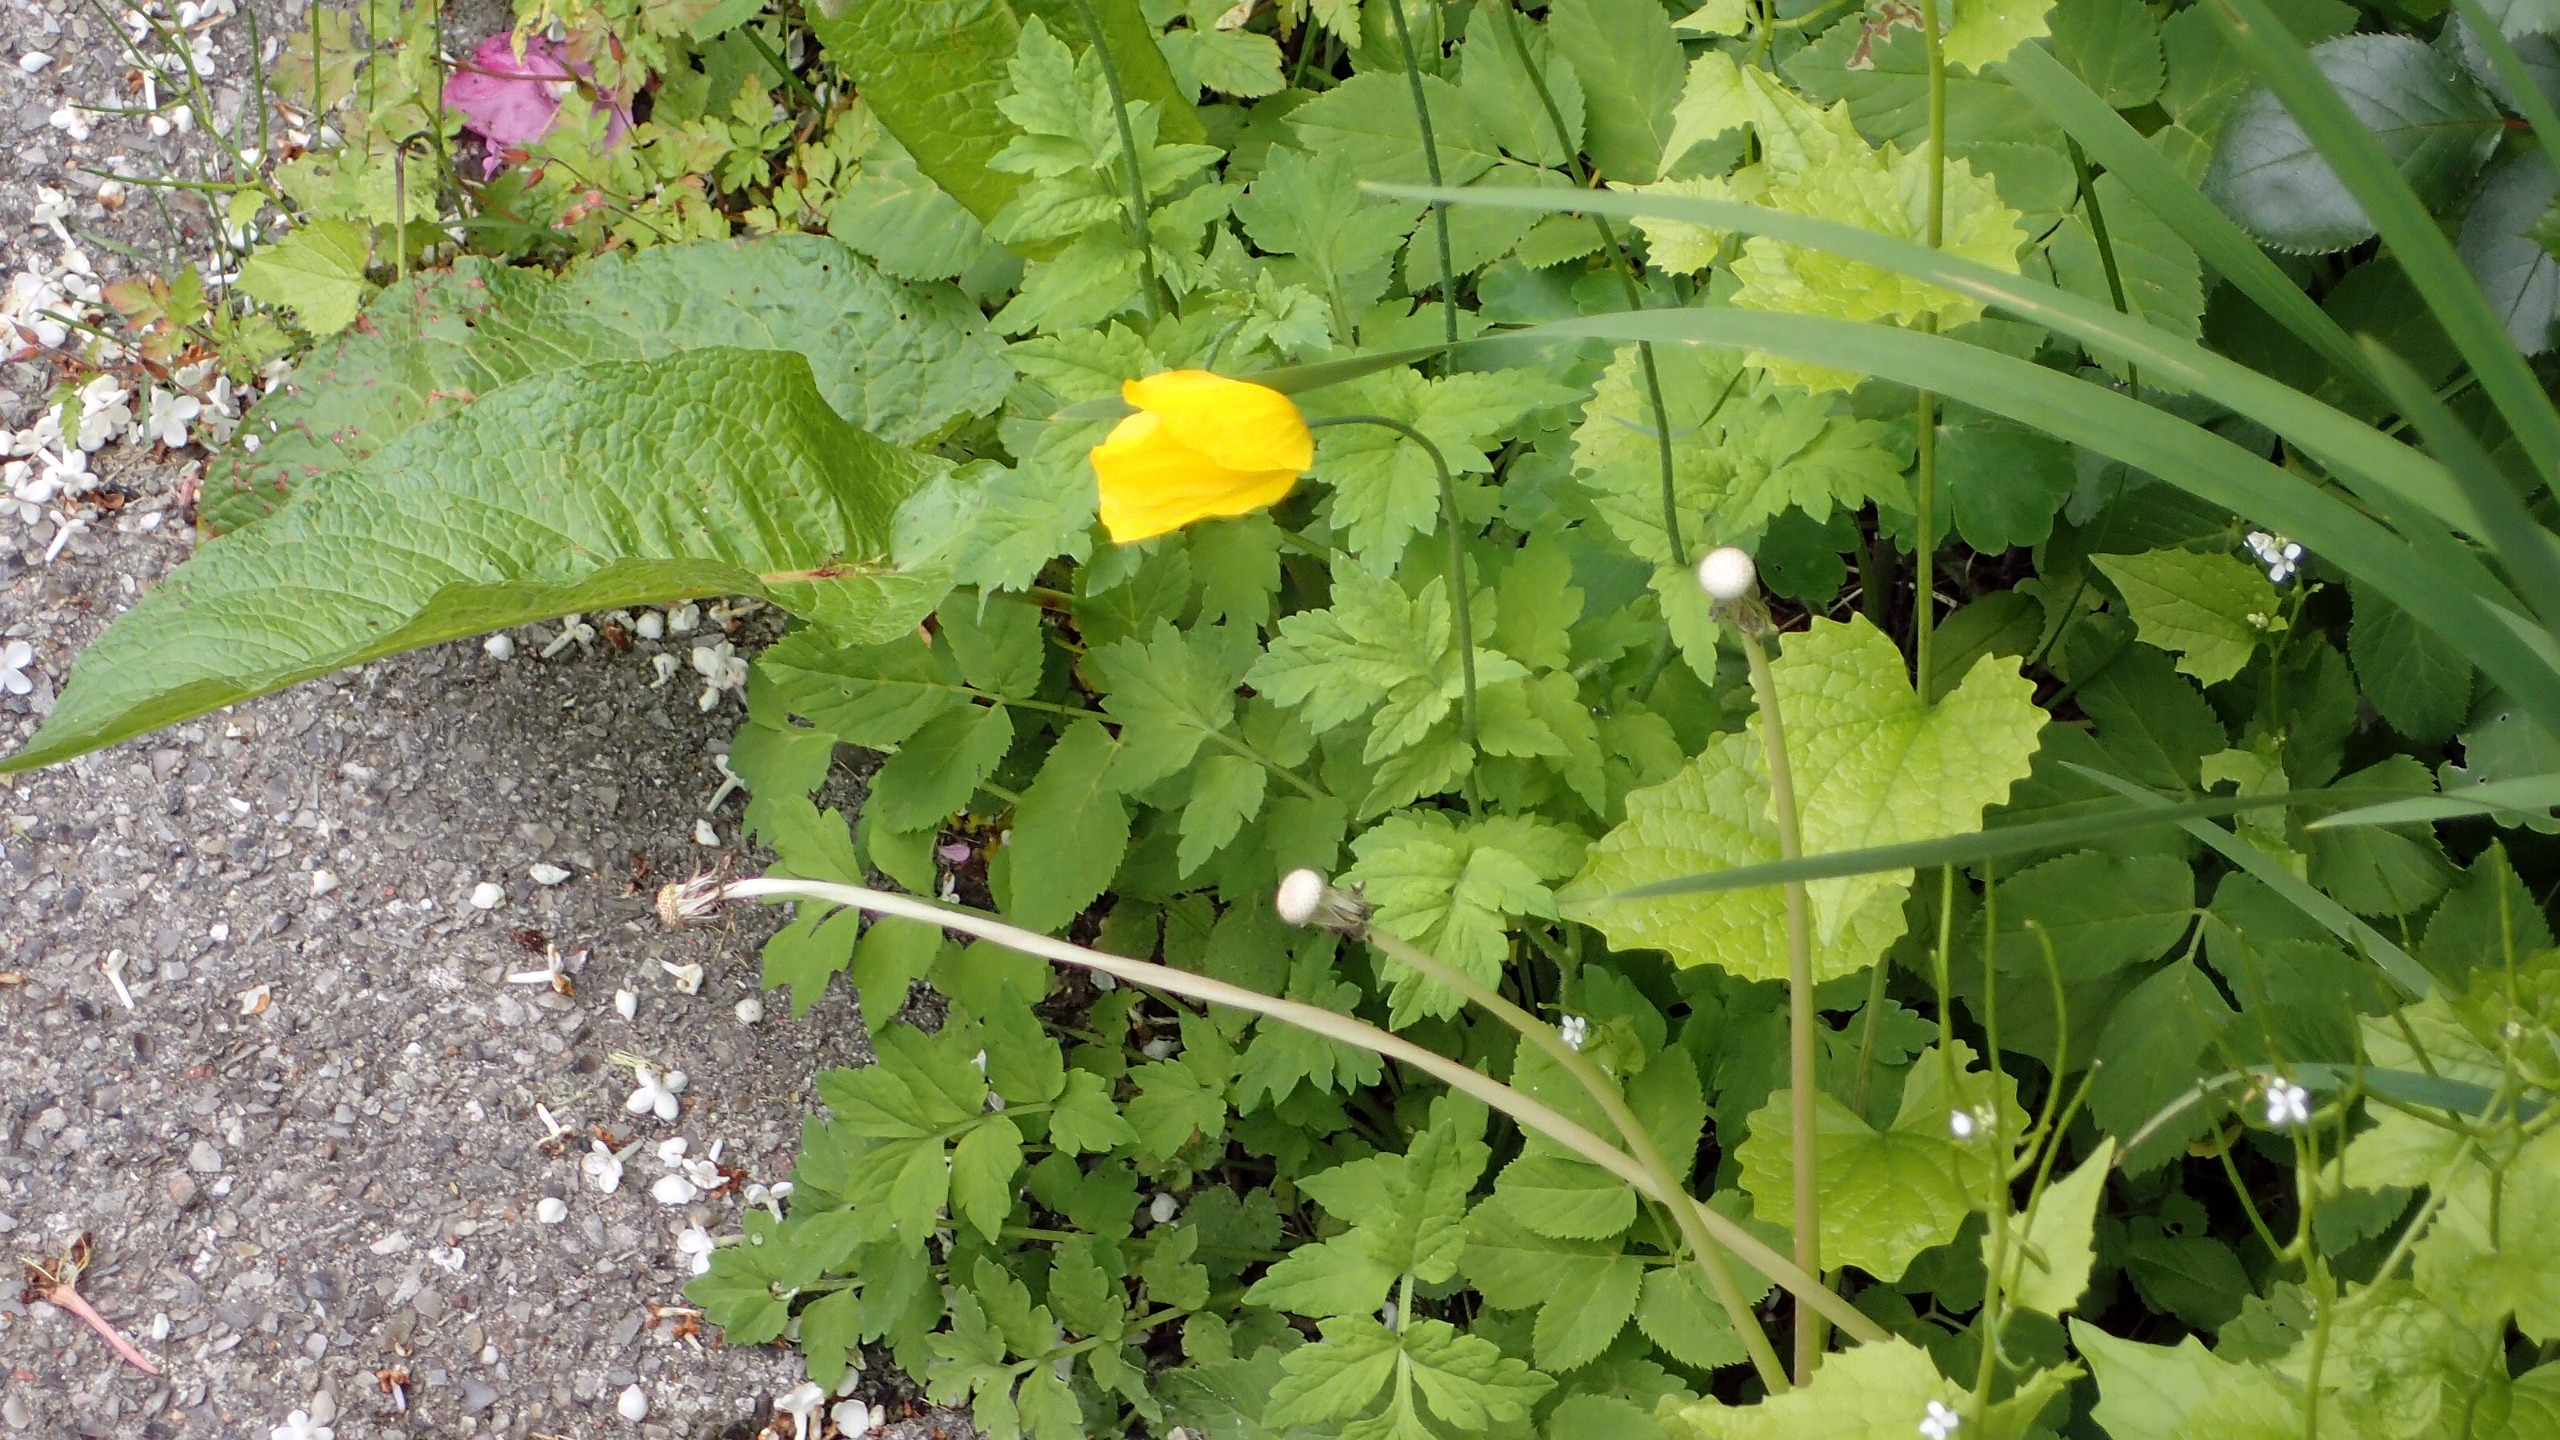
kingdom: Plantae
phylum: Tracheophyta
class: Magnoliopsida
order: Ranunculales
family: Papaveraceae
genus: Papaver
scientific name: Papaver cambricum
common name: Skov-valmue
